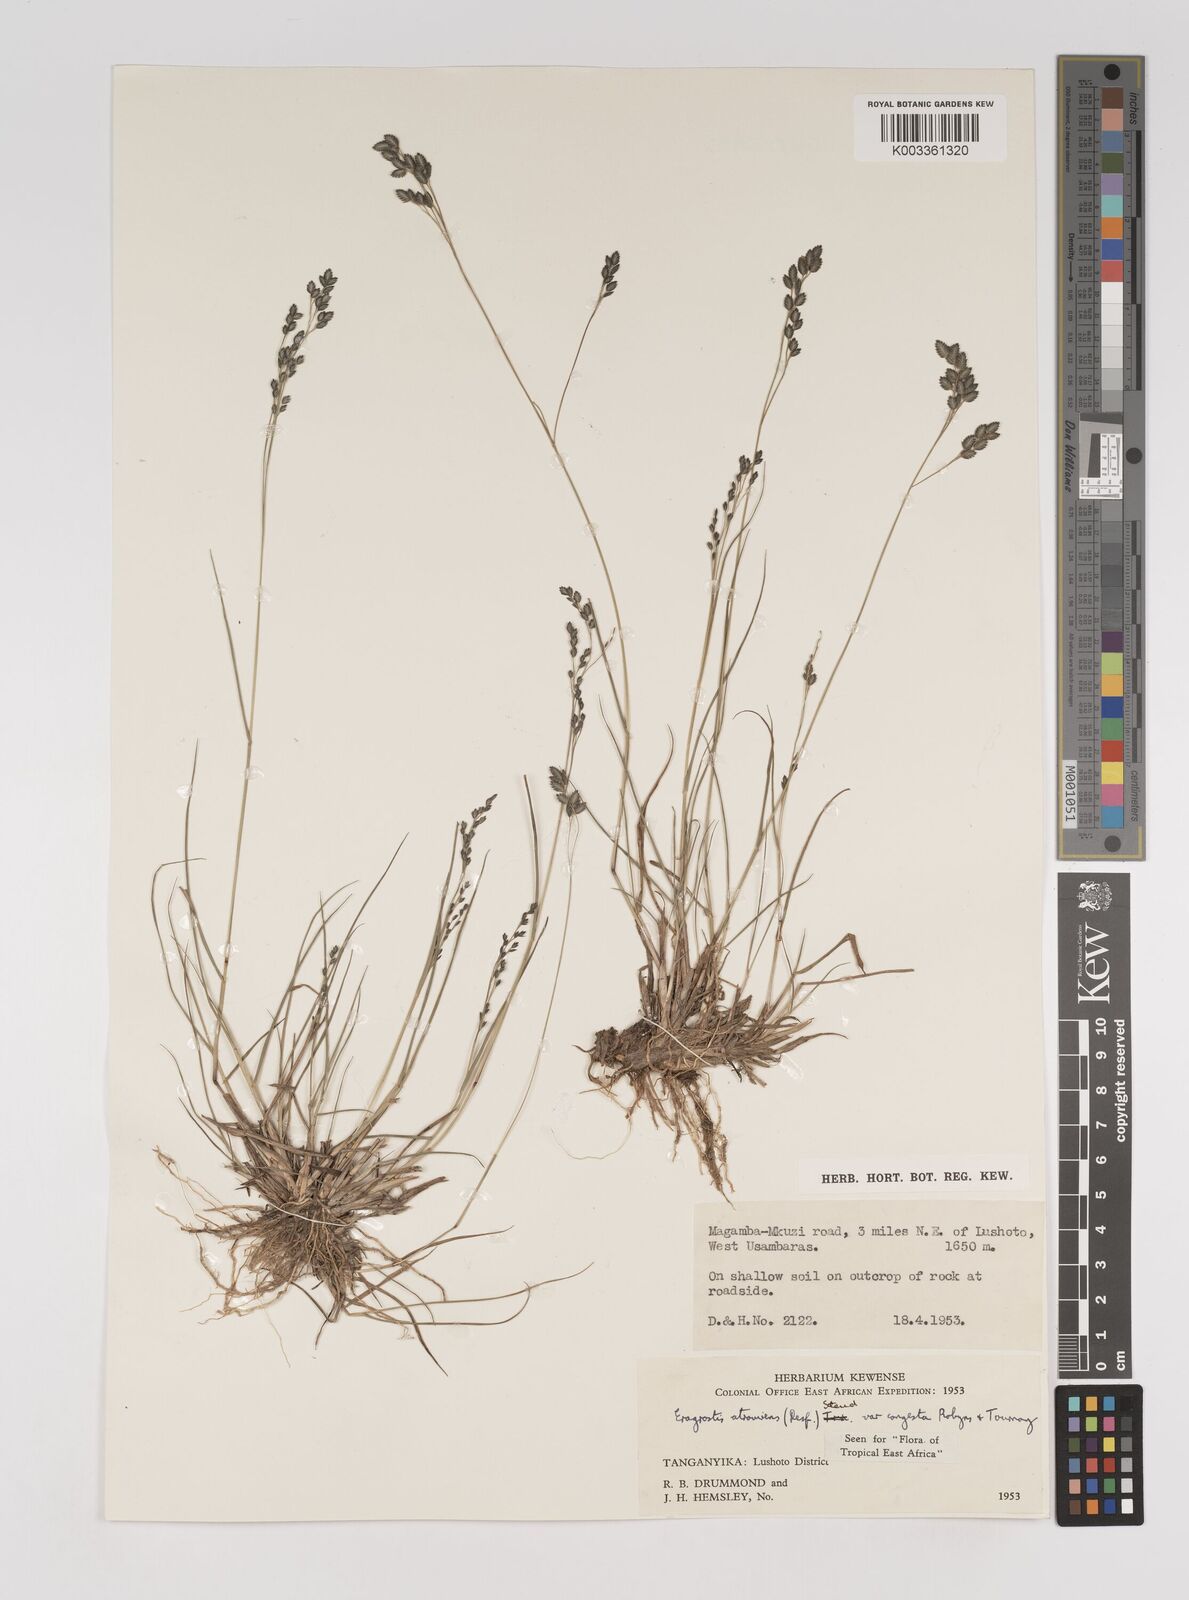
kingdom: Plantae
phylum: Tracheophyta
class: Liliopsida
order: Poales
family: Poaceae
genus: Eragrostis
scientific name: Eragrostis botryodes
